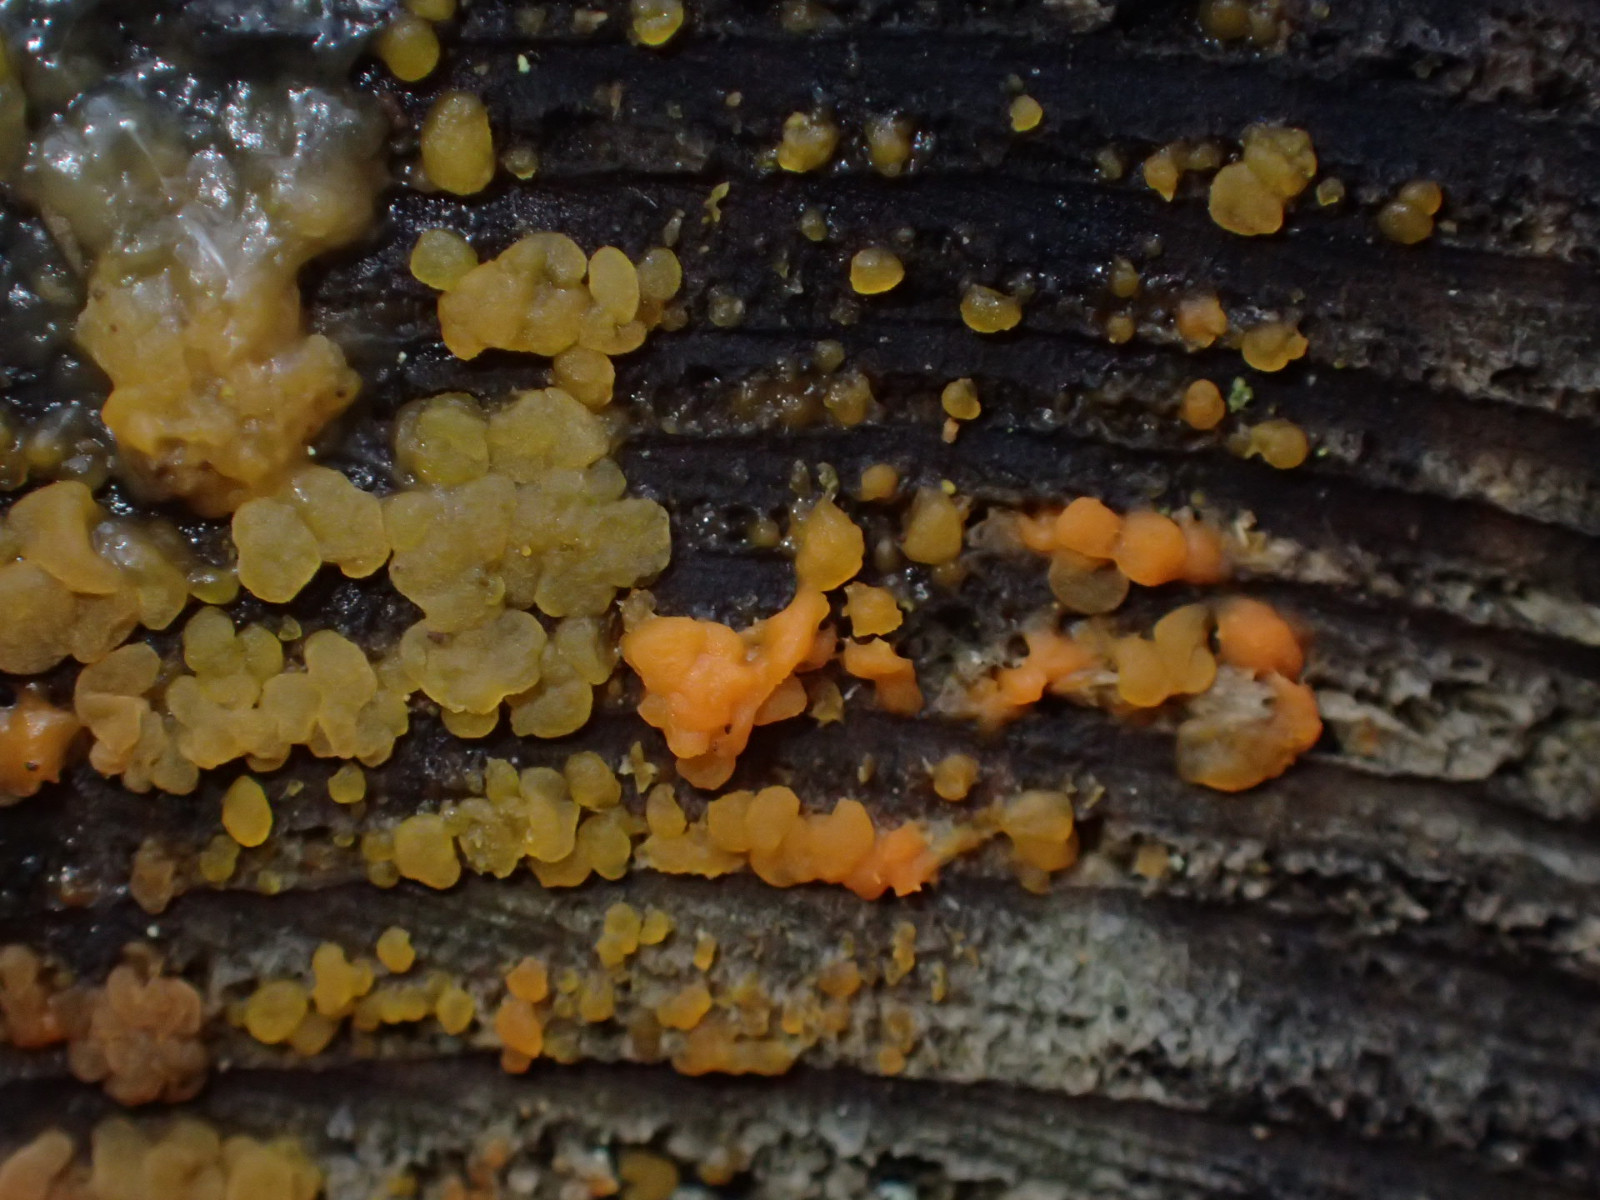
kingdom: Fungi
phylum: Basidiomycota
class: Dacrymycetes
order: Dacrymycetales
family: Dacrymycetaceae
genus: Dacrymyces
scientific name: Dacrymyces stillatus
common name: almindelig tåresvamp
